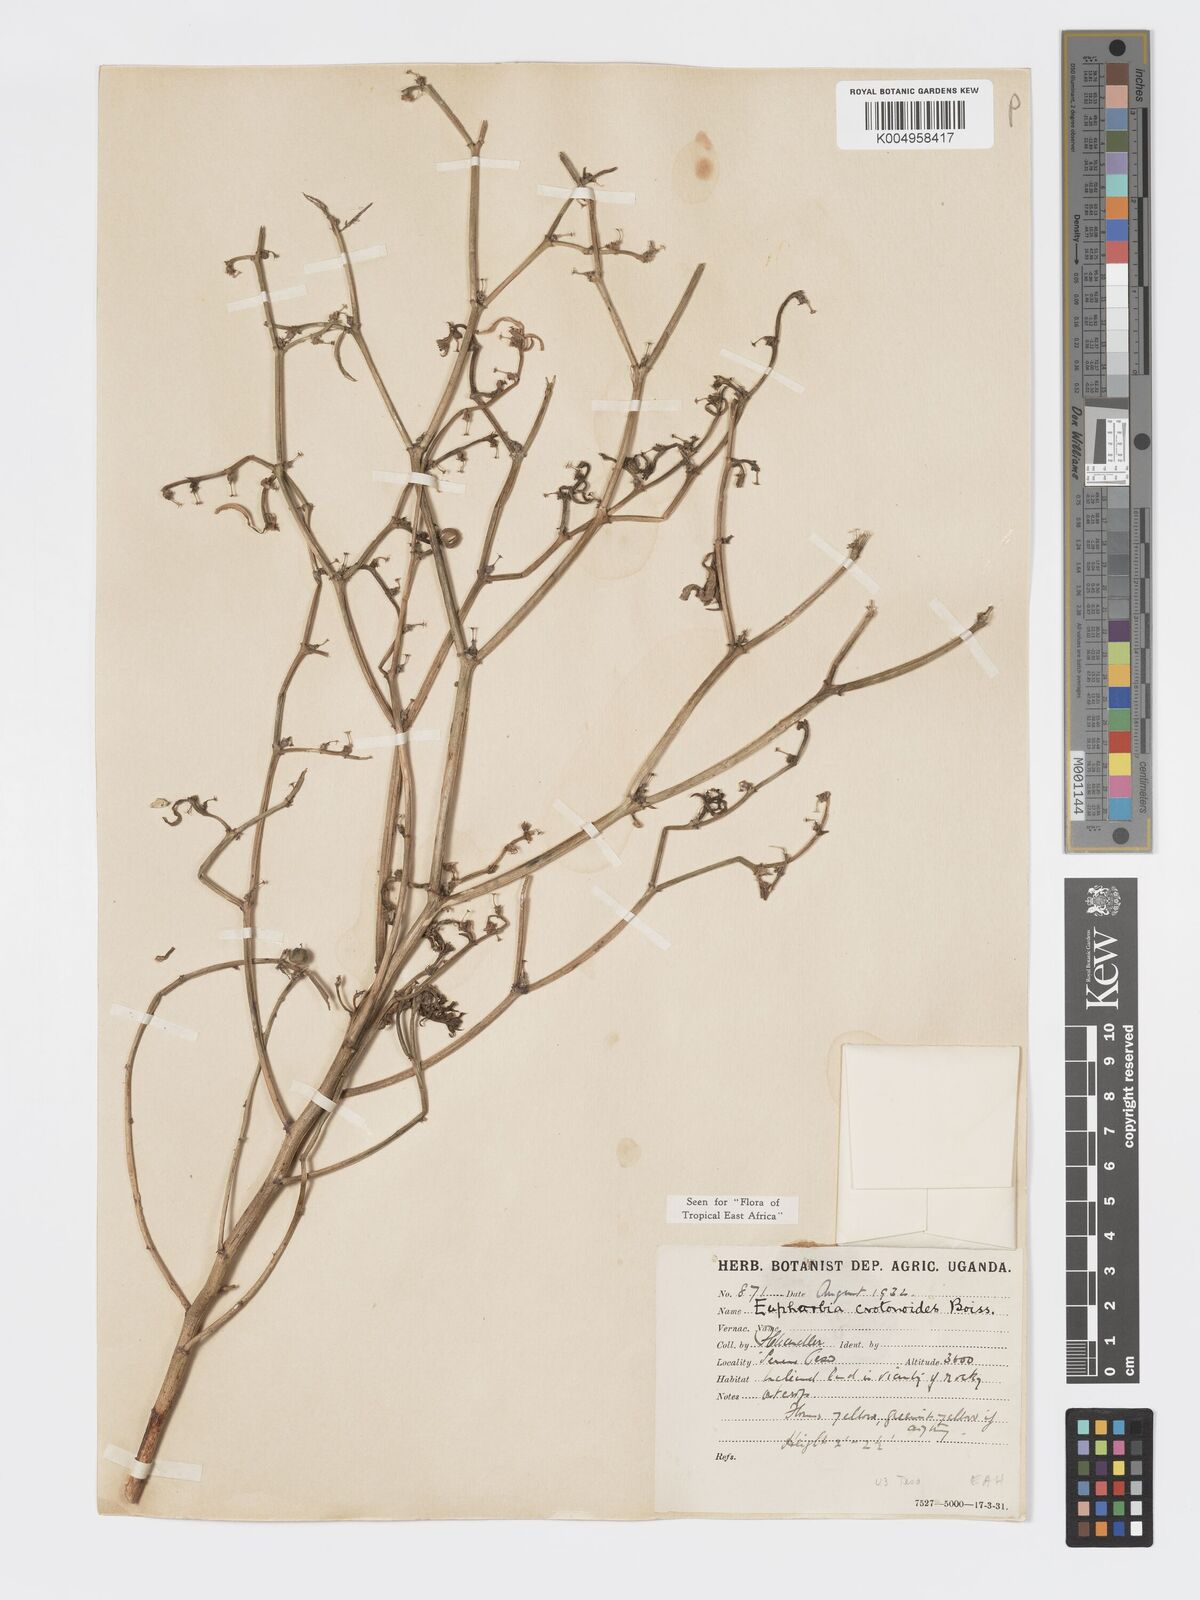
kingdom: Plantae
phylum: Tracheophyta
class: Magnoliopsida
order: Malpighiales
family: Euphorbiaceae
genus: Euphorbia
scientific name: Euphorbia crotonoides
